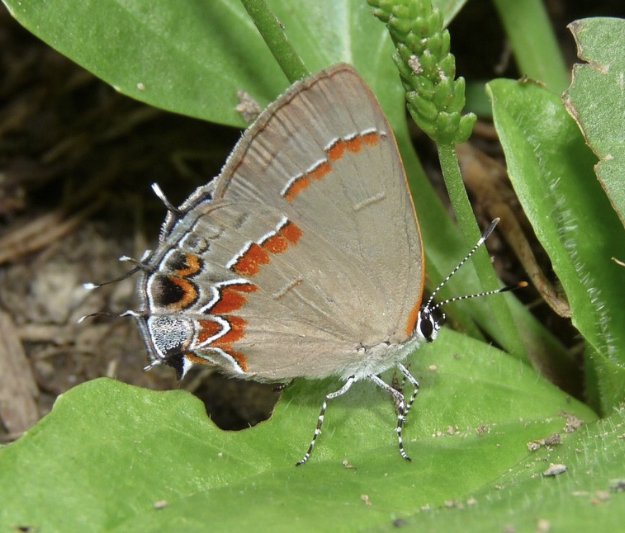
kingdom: Animalia
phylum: Arthropoda
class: Insecta
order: Lepidoptera
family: Lycaenidae
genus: Calycopis
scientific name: Calycopis cecrops
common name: Red-banded Hairstreak
